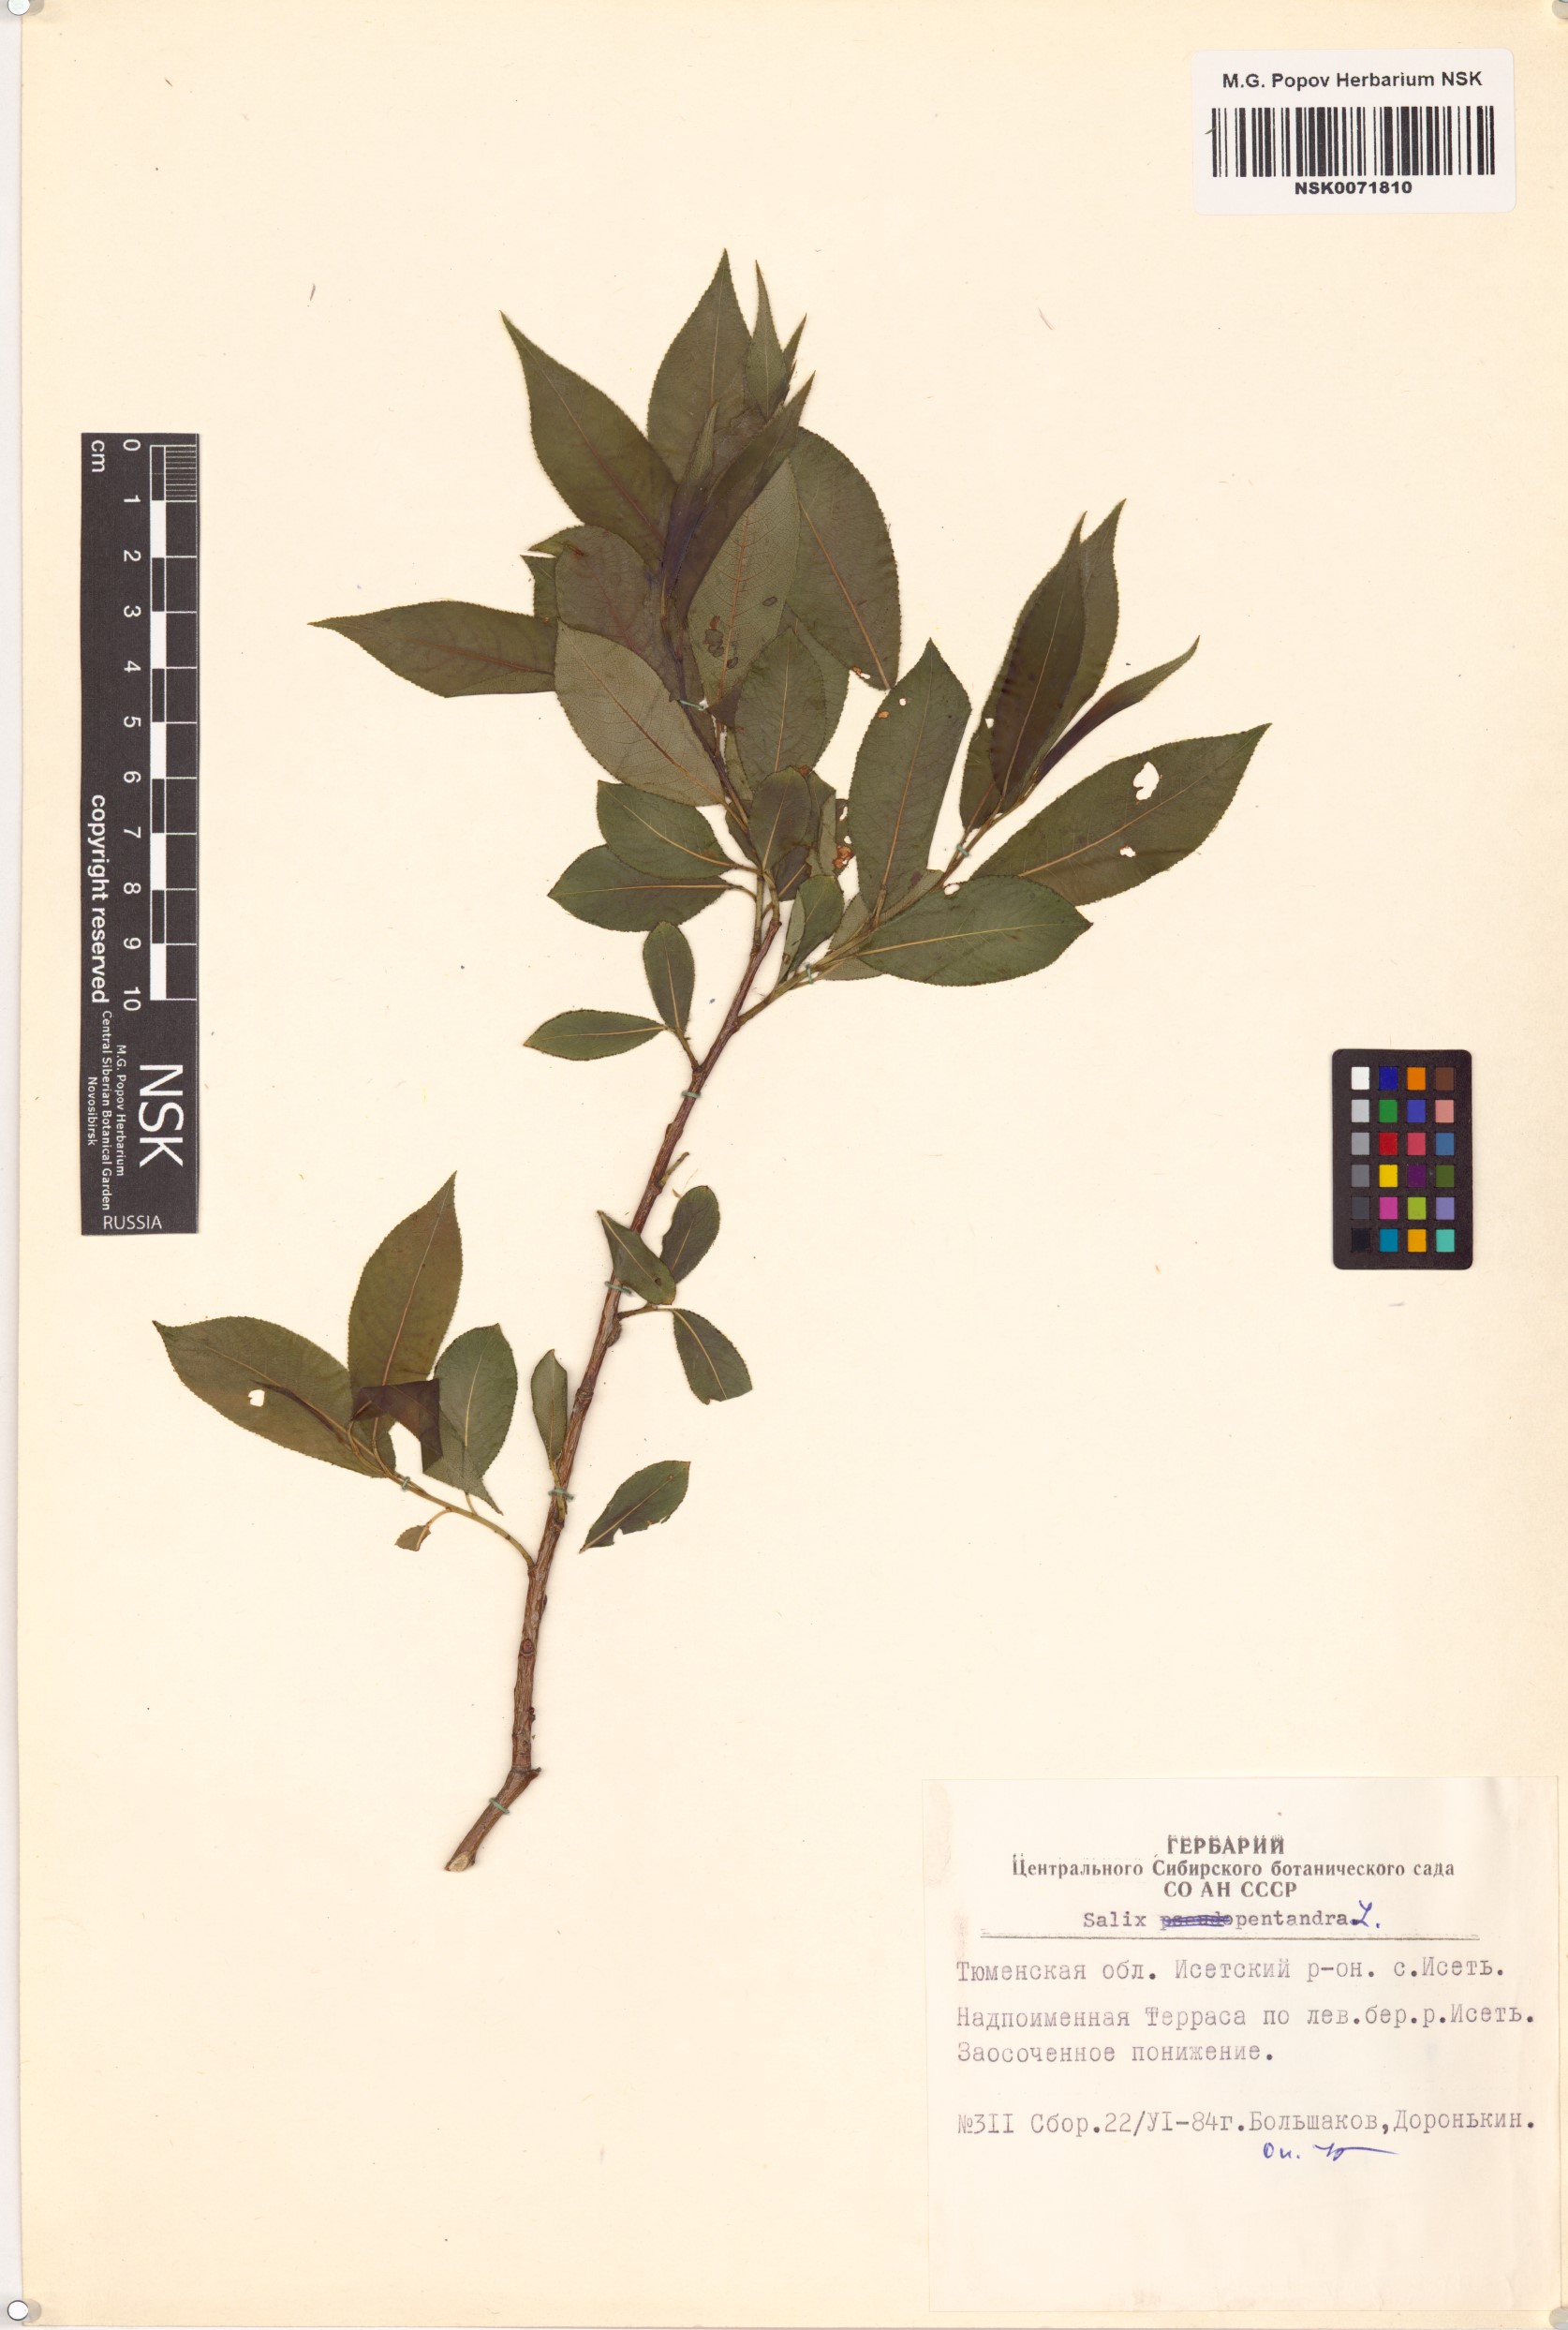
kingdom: Plantae
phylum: Tracheophyta
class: Magnoliopsida
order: Malpighiales
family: Salicaceae
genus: Salix
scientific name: Salix pentandra
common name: Bay willow
